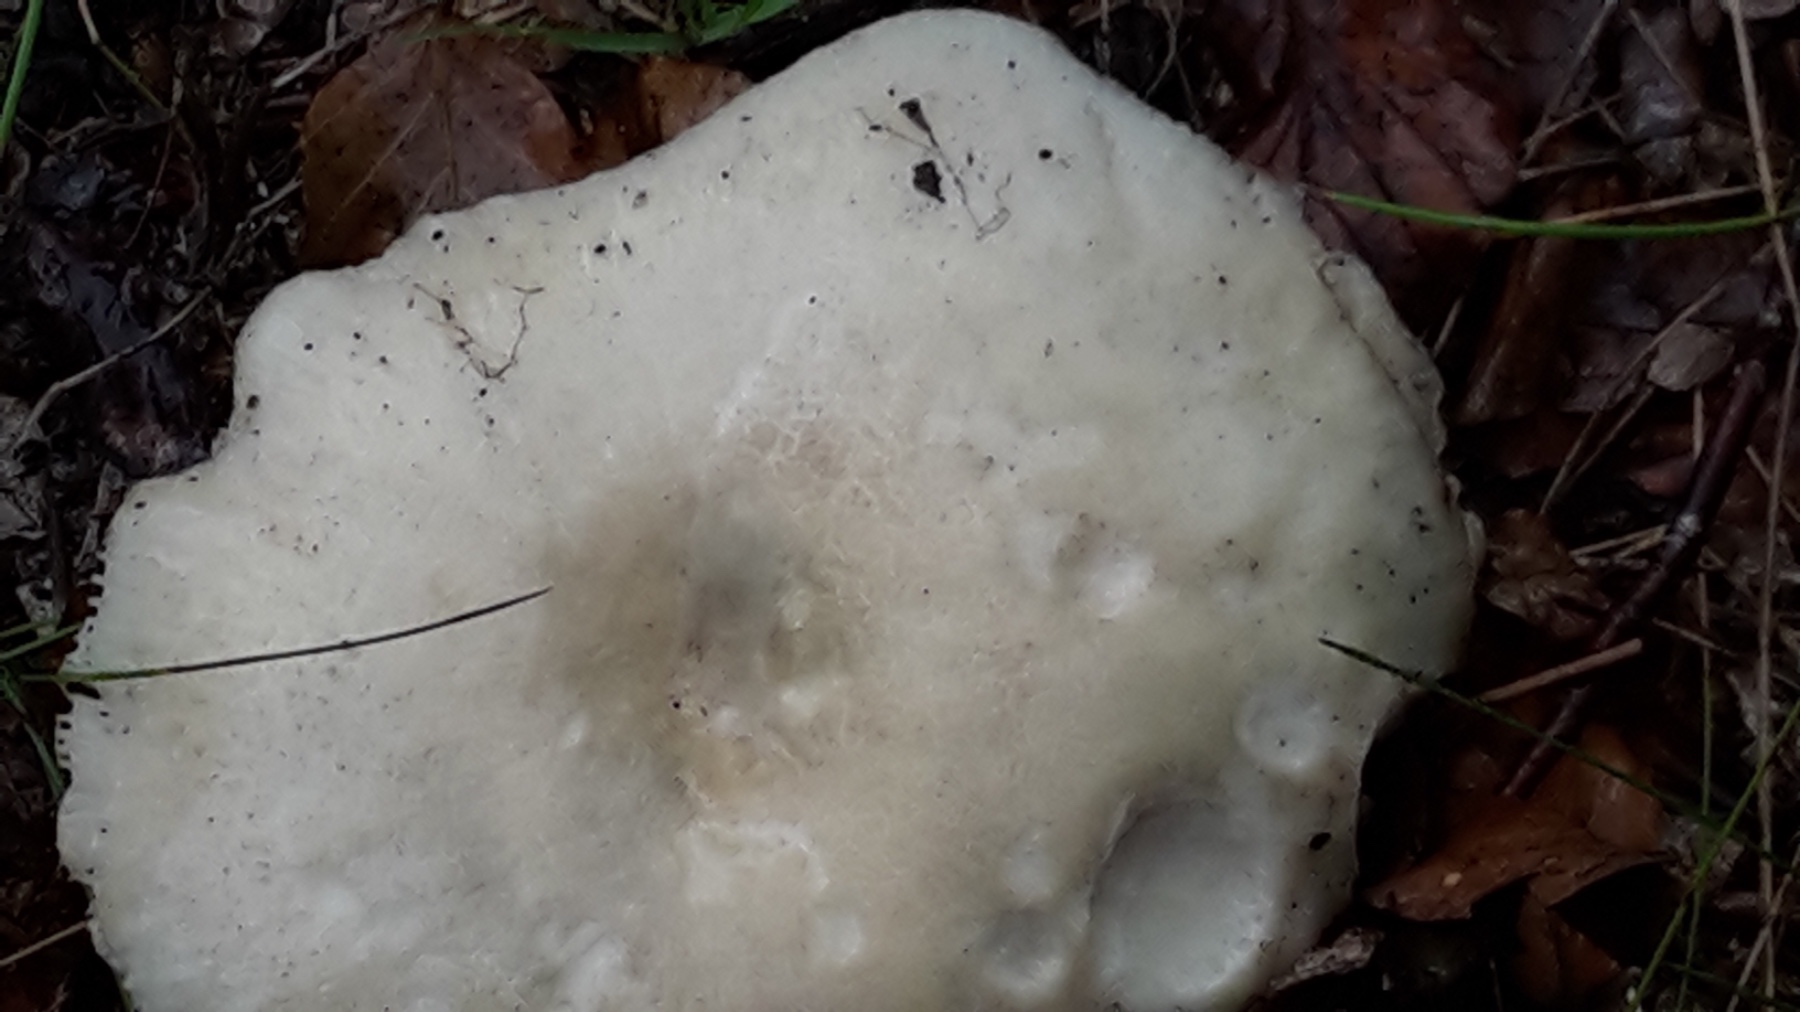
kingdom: Fungi
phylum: Basidiomycota
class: Agaricomycetes
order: Russulales
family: Russulaceae
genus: Russula
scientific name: Russula virescens
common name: spanskgrøn skørhat
